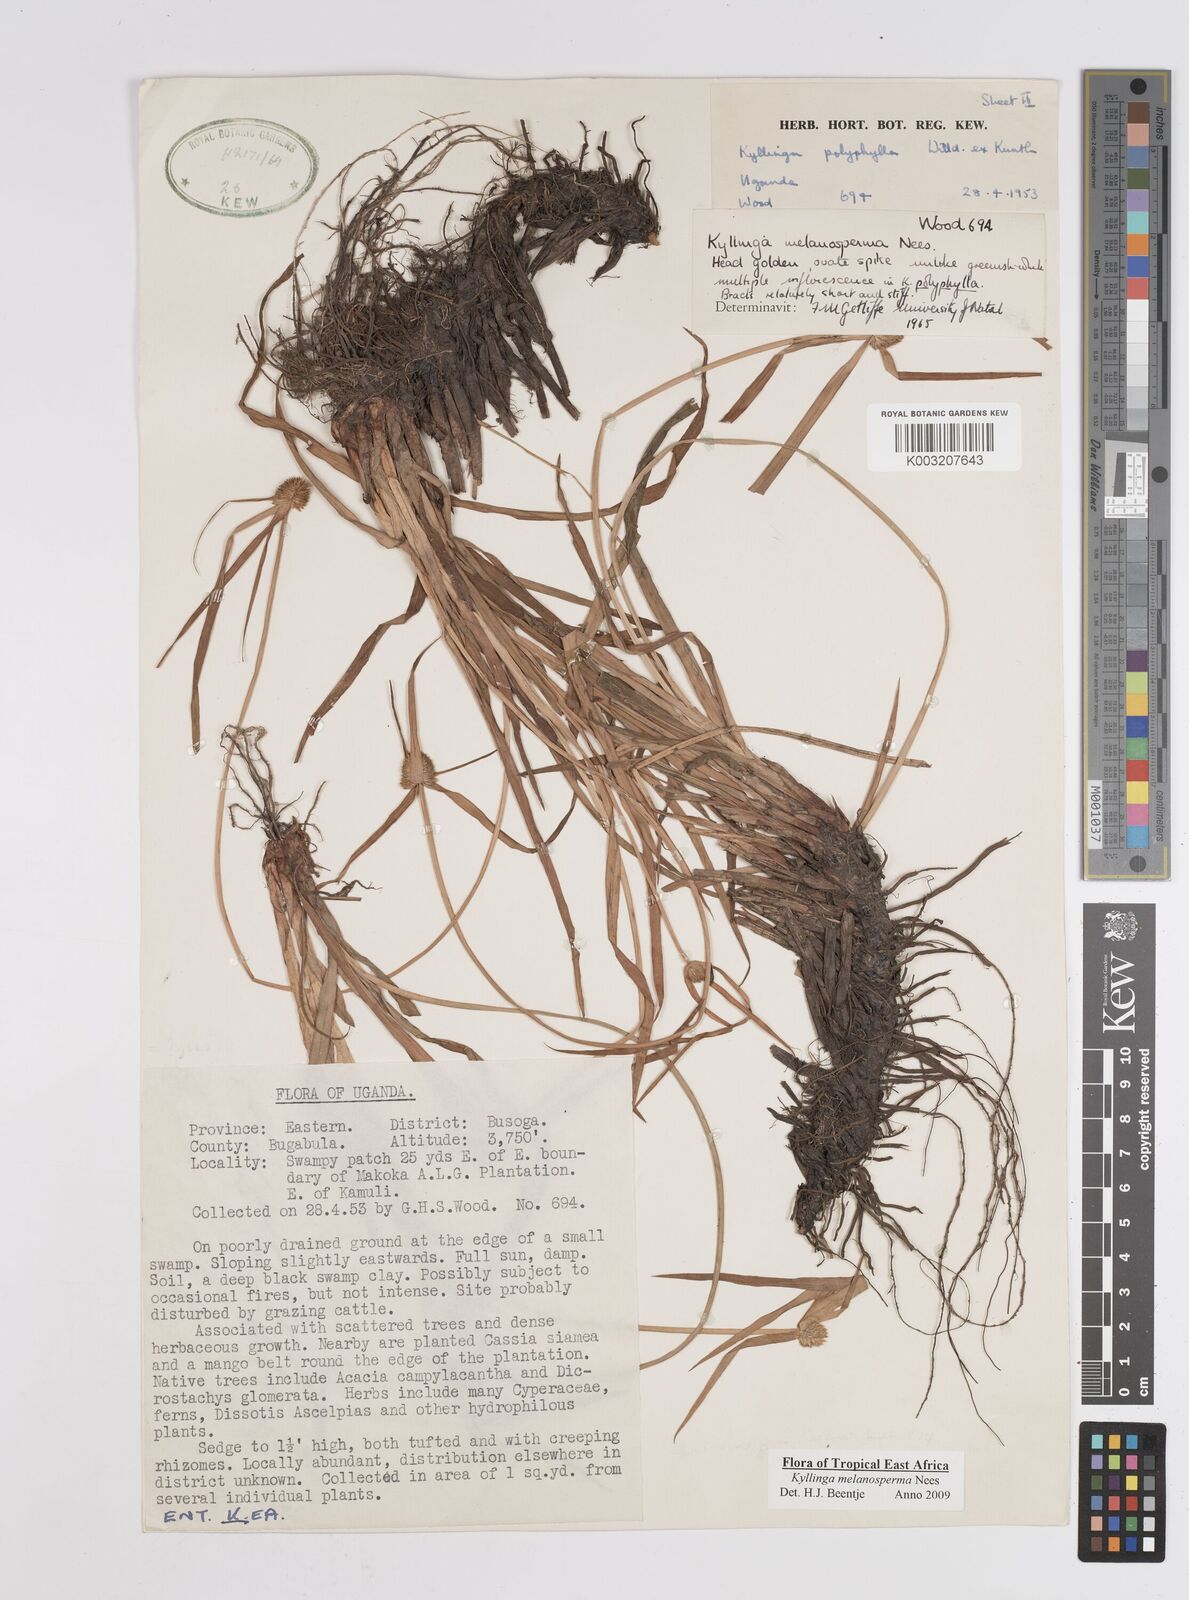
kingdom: Plantae
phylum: Tracheophyta
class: Liliopsida
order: Poales
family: Cyperaceae
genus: Cyperus
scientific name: Cyperus melanospermus
